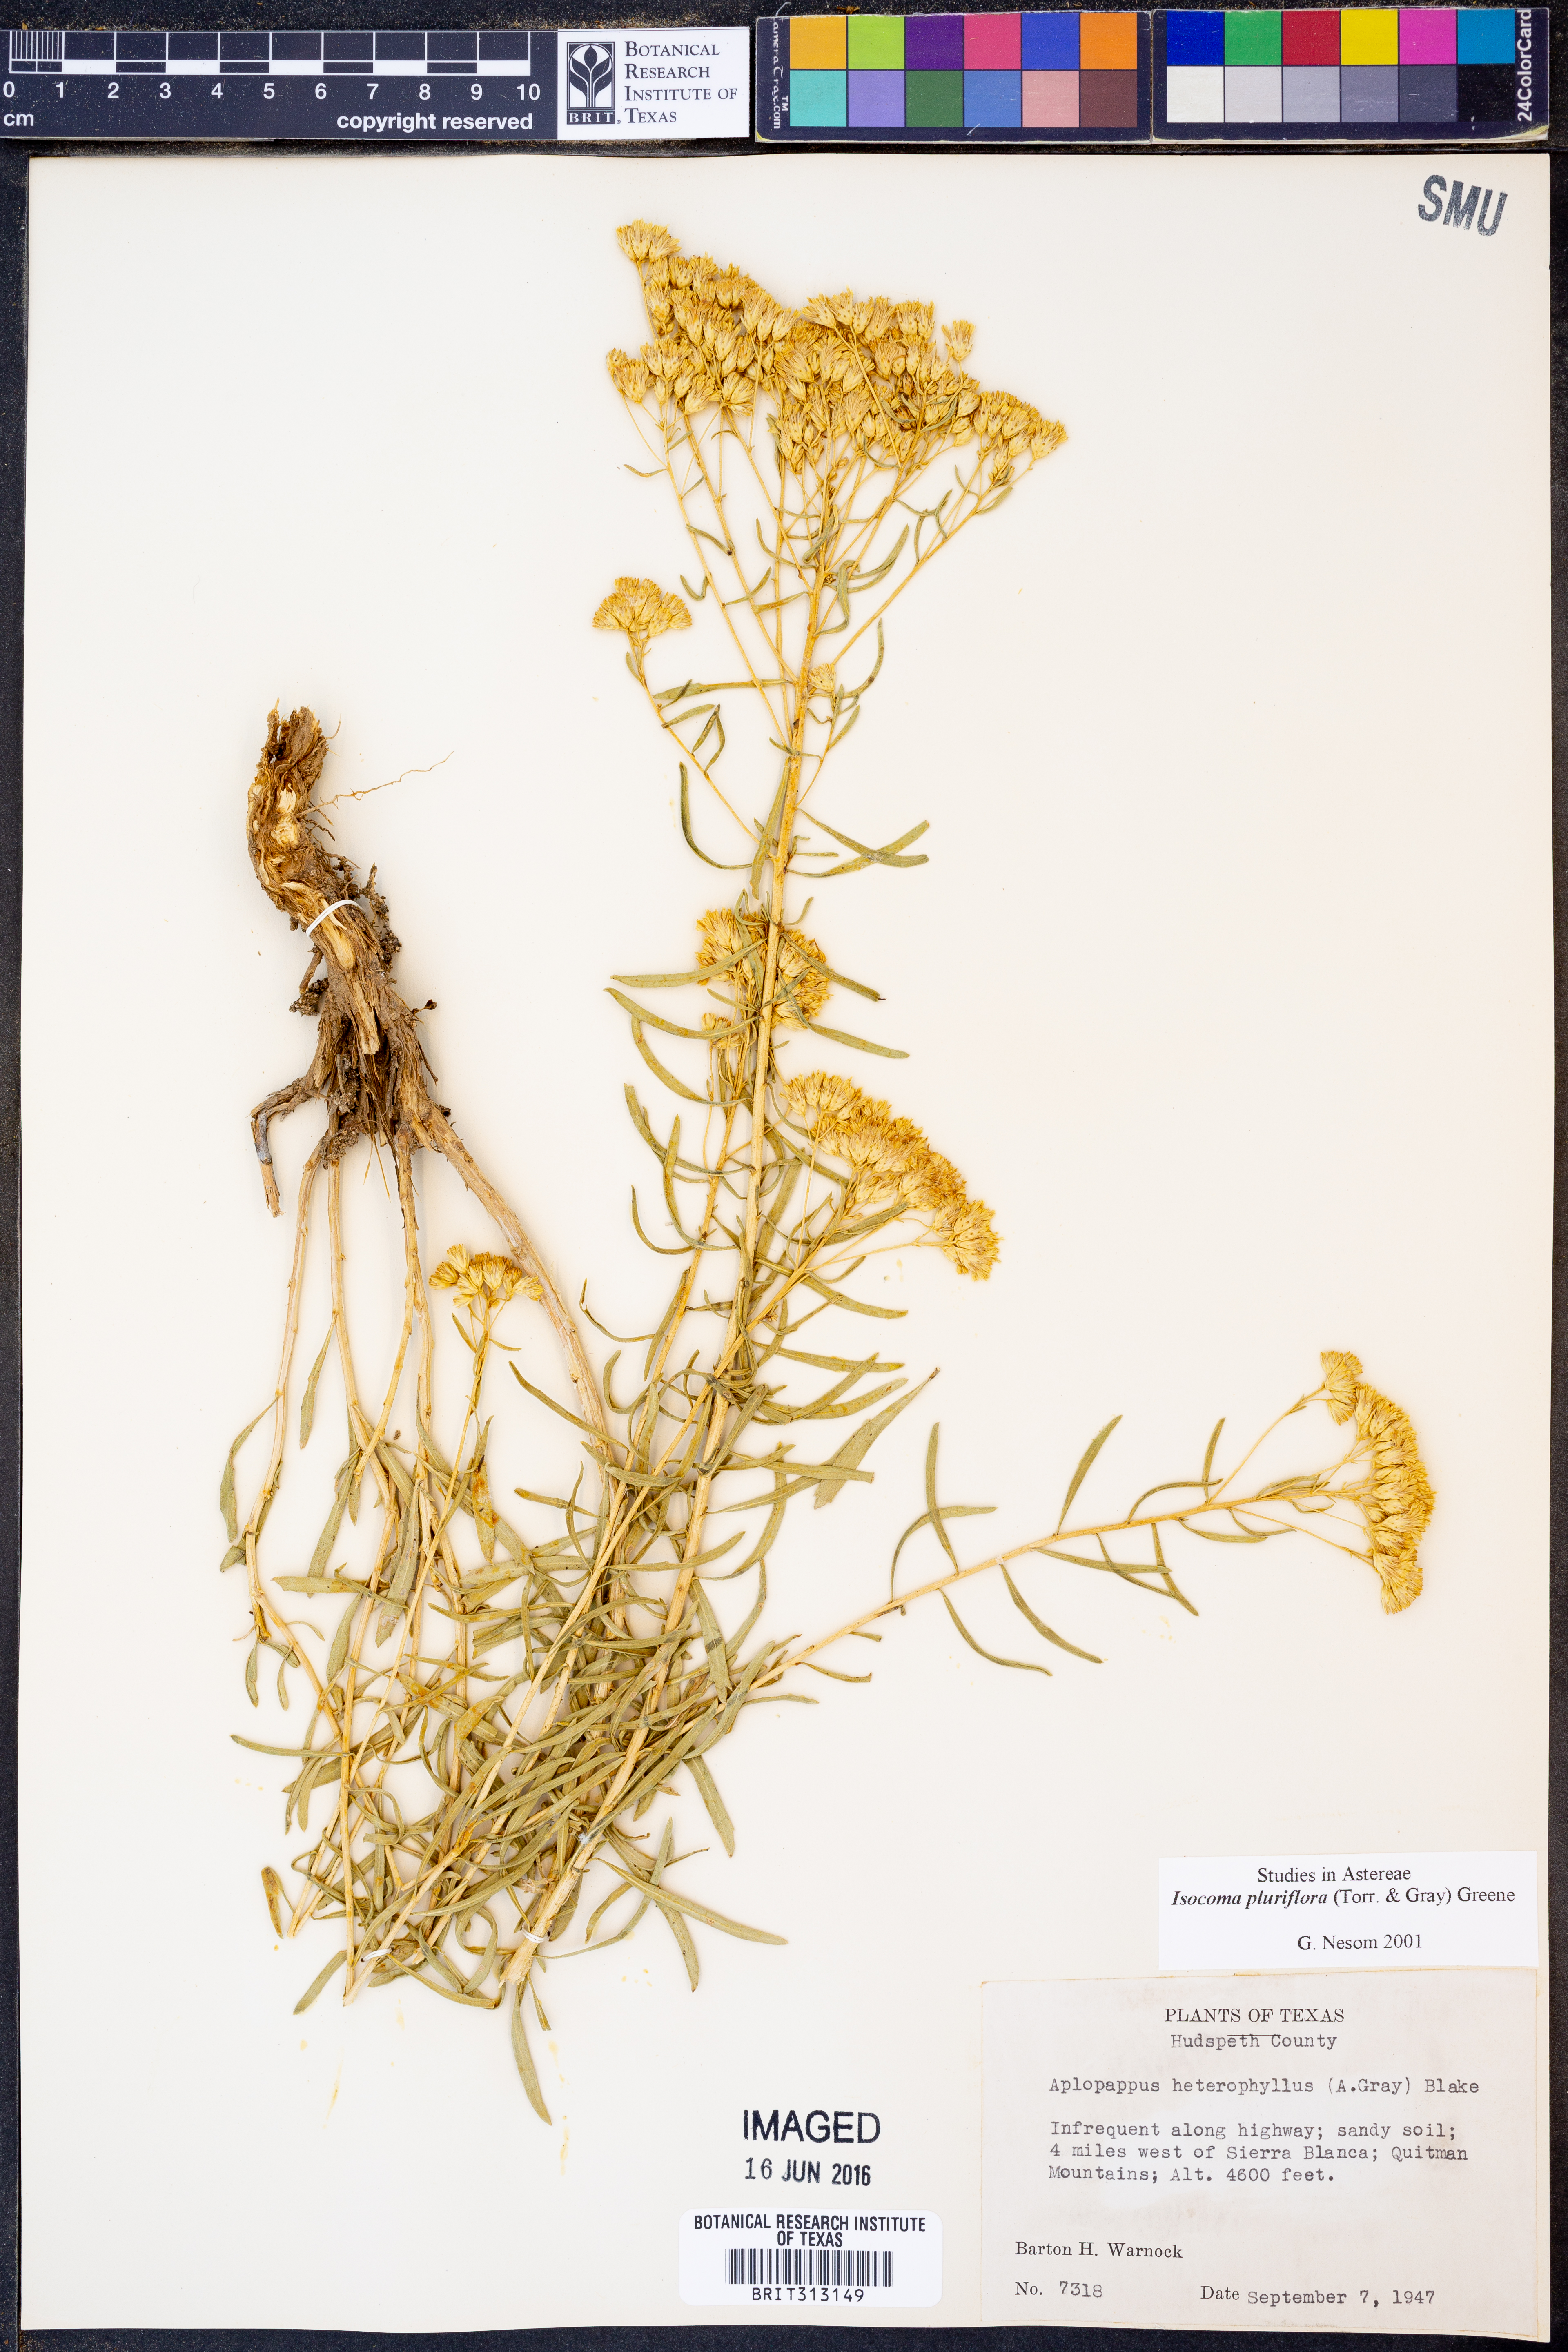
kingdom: Plantae
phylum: Tracheophyta
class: Magnoliopsida
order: Asterales
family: Asteraceae
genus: Isocoma
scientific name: Isocoma pluriflora
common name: Southern jimmyweed
